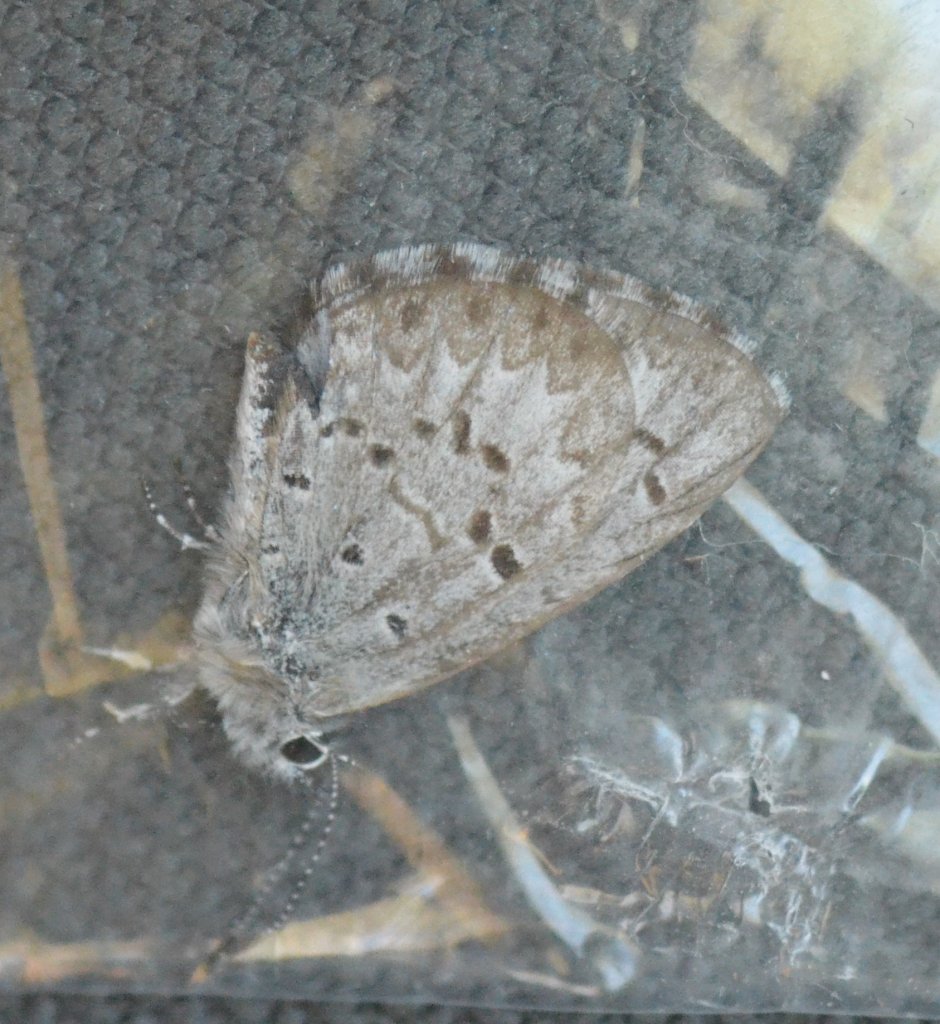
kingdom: Animalia
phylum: Arthropoda
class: Insecta
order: Lepidoptera
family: Lycaenidae
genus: Celastrina
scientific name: Celastrina lucia
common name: Northern Spring Azure
